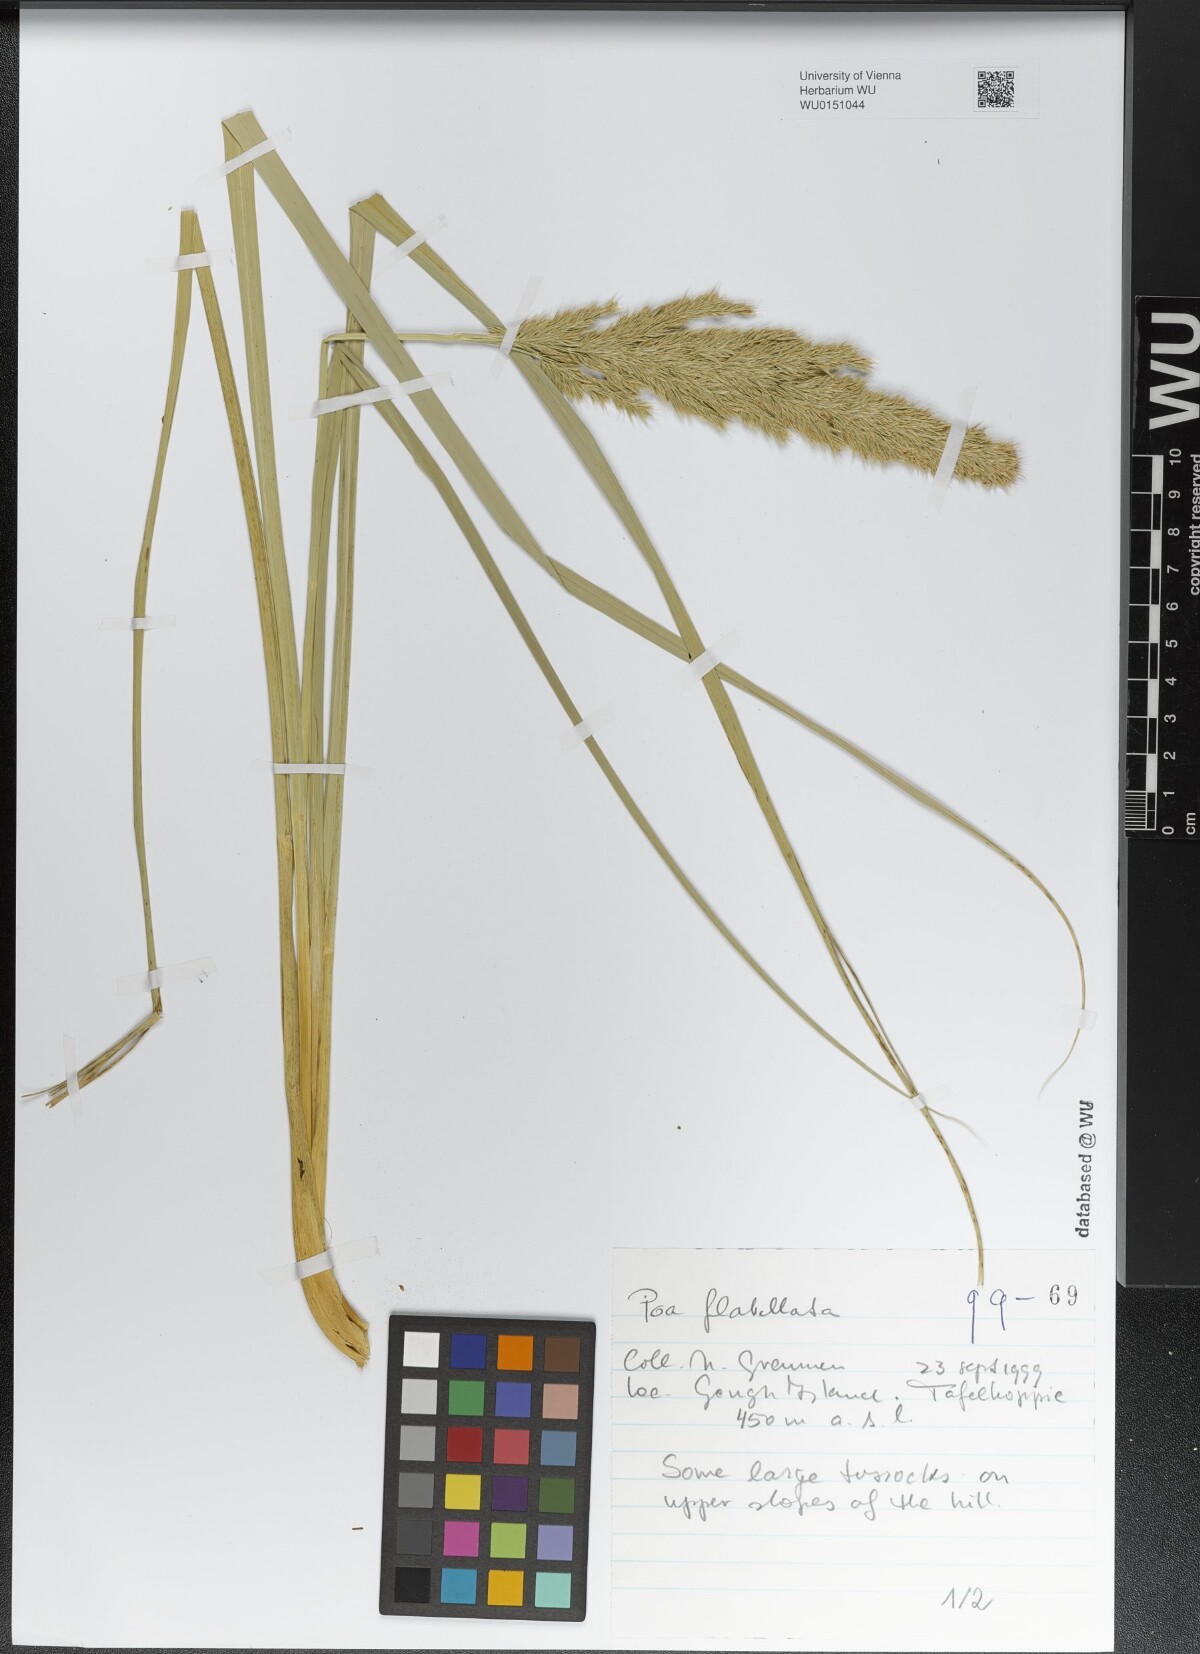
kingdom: Plantae
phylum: Tracheophyta
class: Liliopsida
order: Poales
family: Poaceae
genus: Poa
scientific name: Poa flabellata
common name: Tussac-grass
